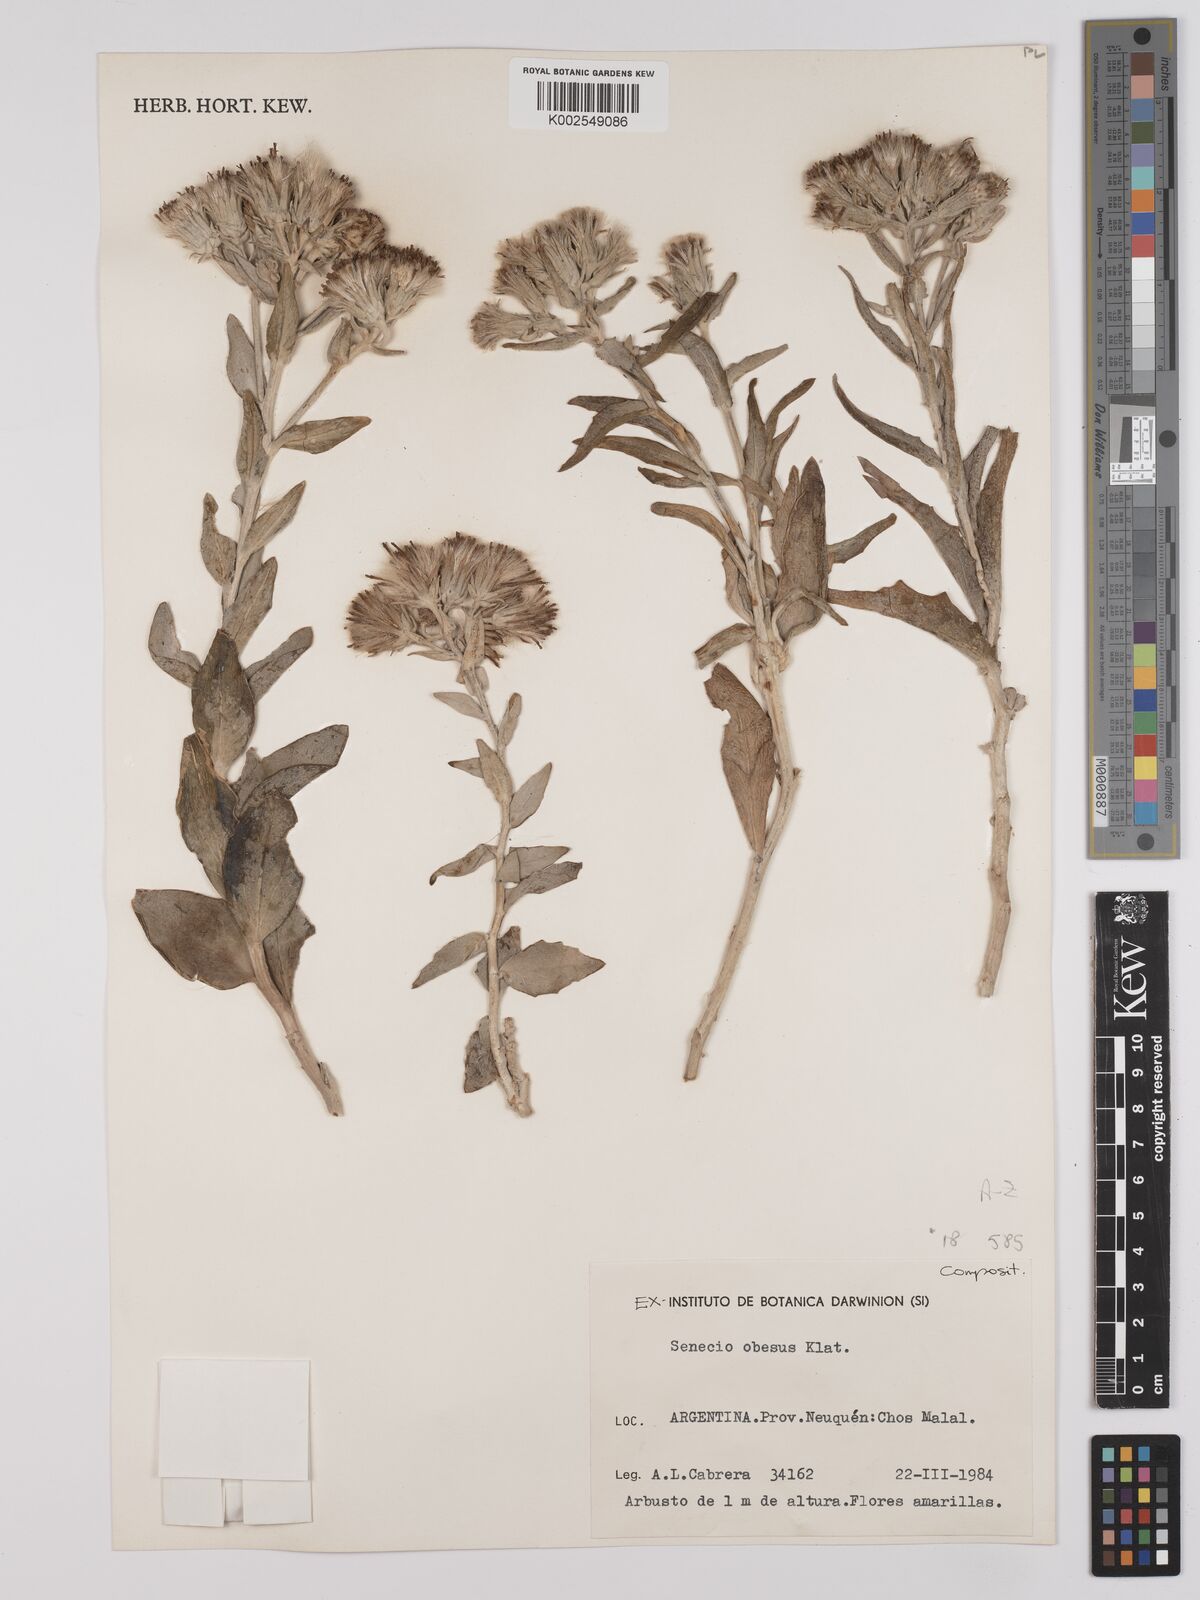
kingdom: Plantae
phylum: Tracheophyta
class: Magnoliopsida
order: Asterales
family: Asteraceae
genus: Senecio
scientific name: Senecio obesus
